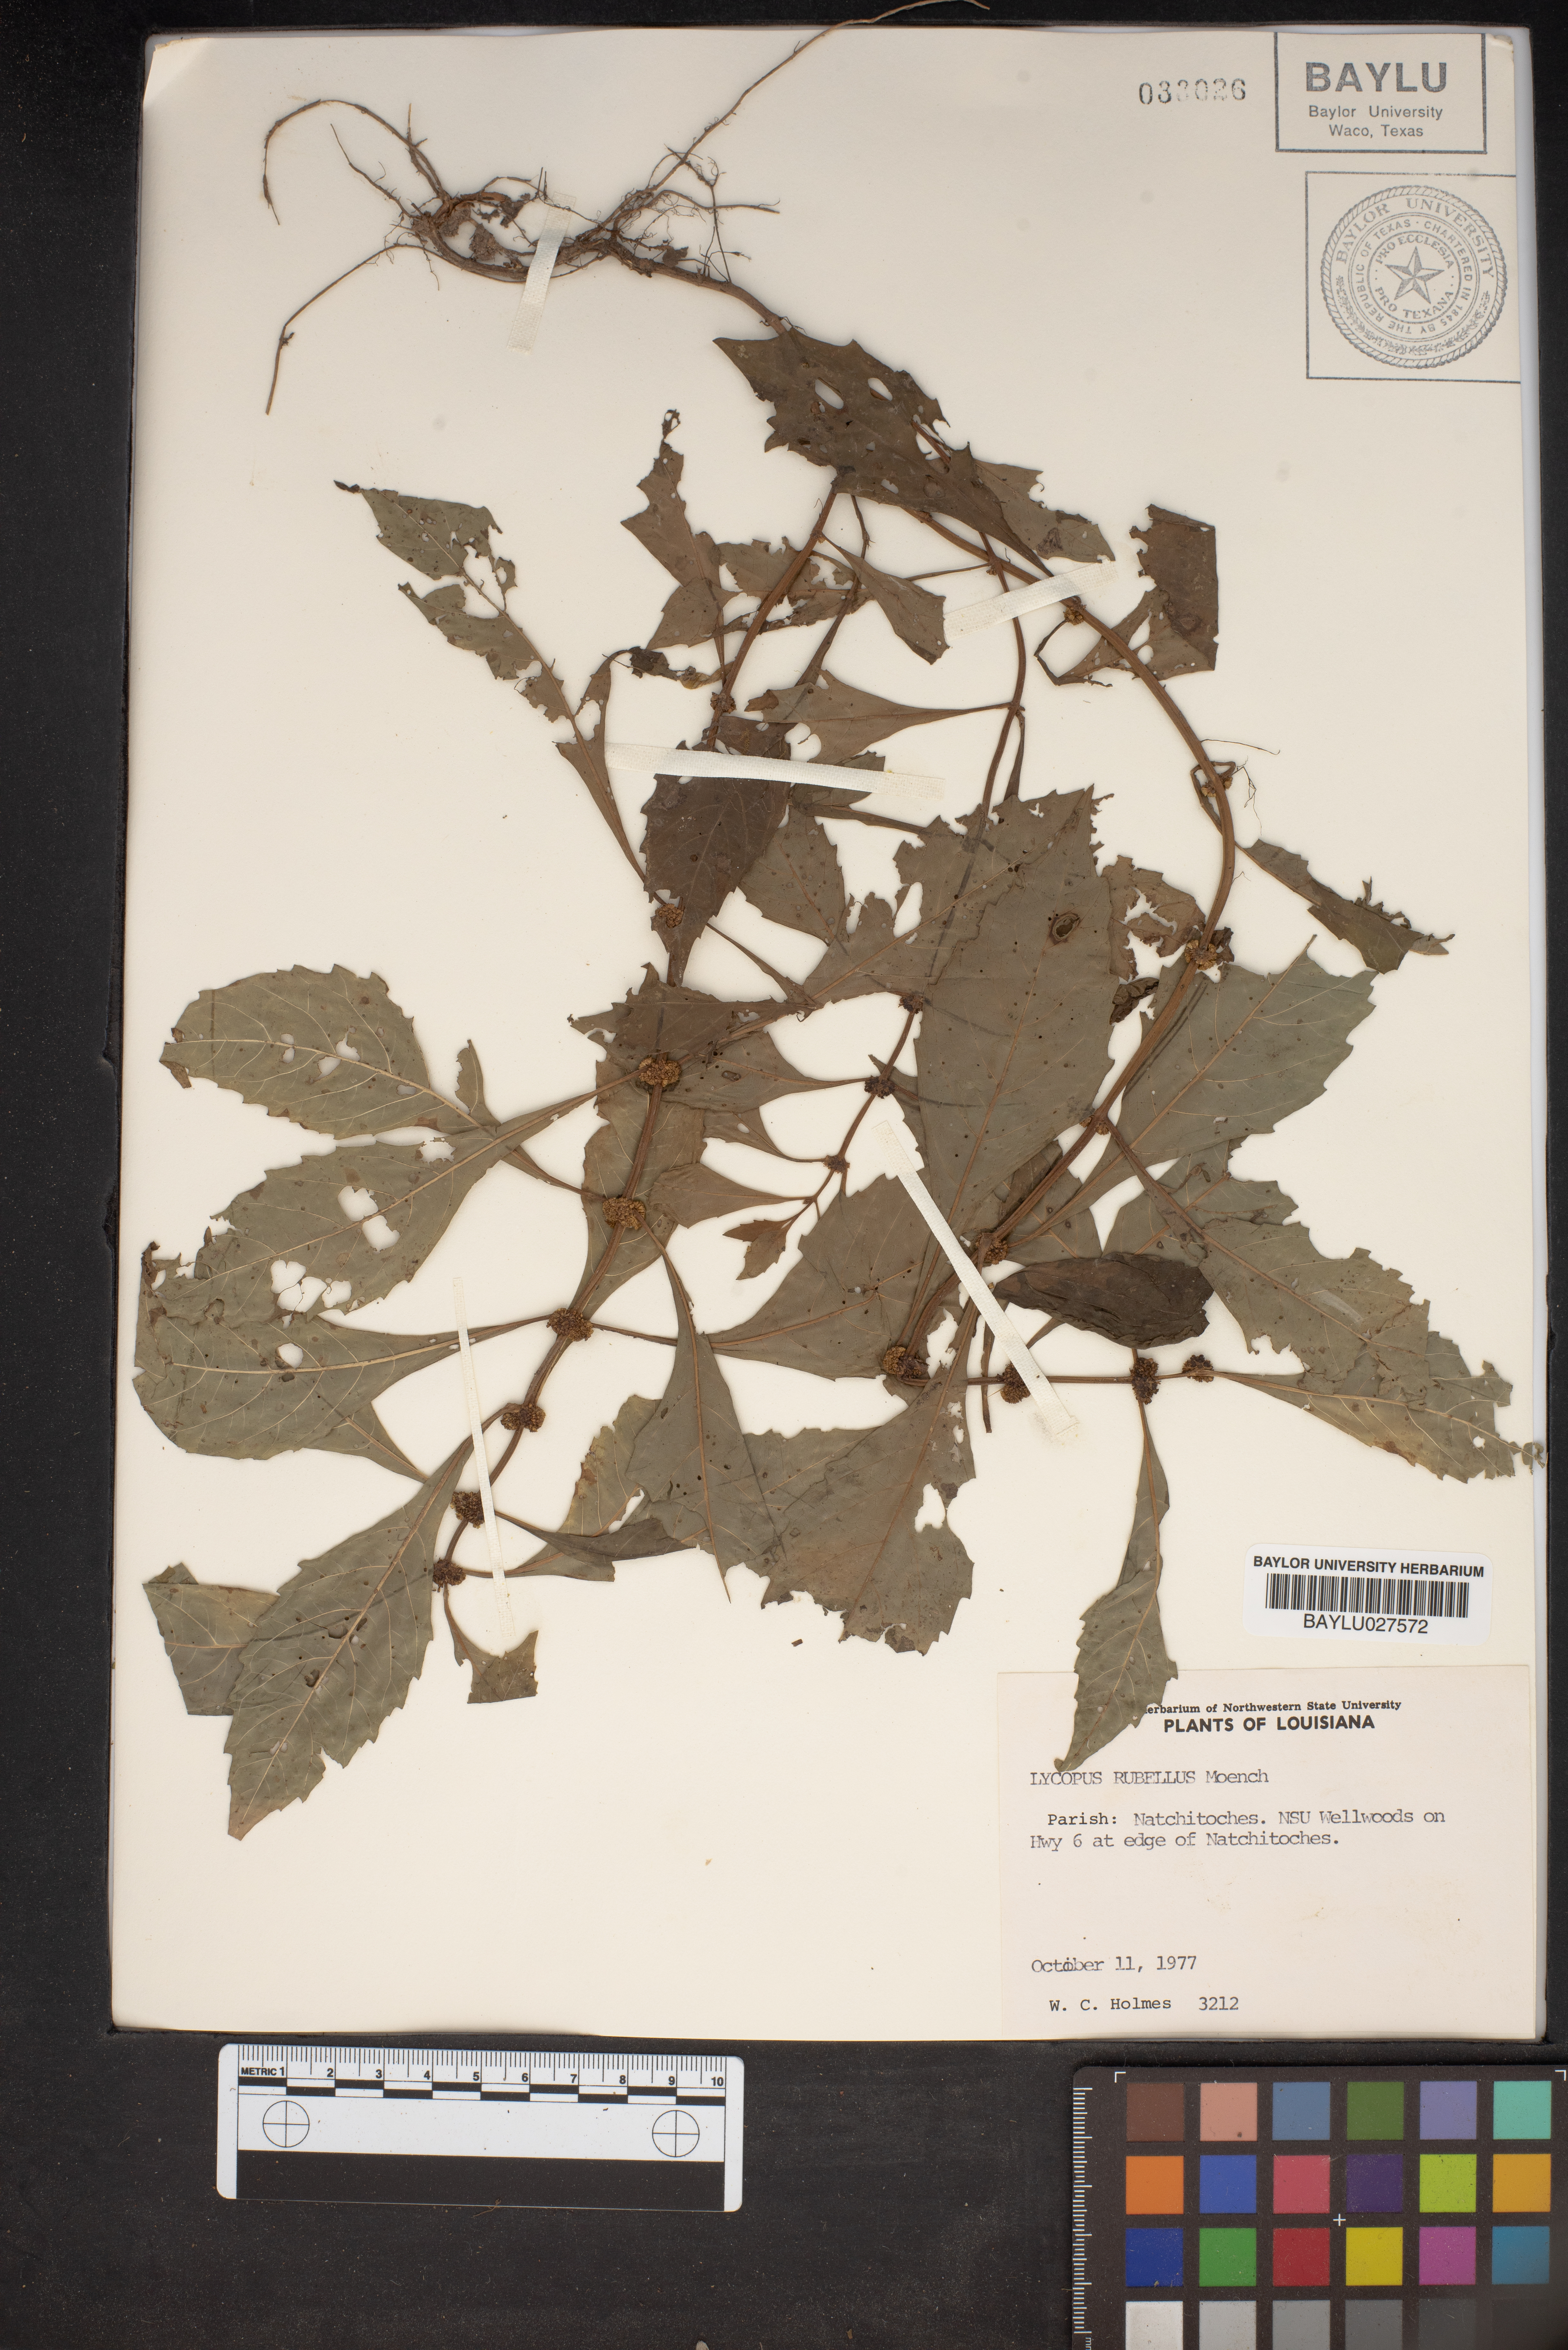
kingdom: Plantae
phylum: Tracheophyta
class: Magnoliopsida
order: Lamiales
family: Lamiaceae
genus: Lycopus
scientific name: Lycopus rubellus
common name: Stalked bugleweed
